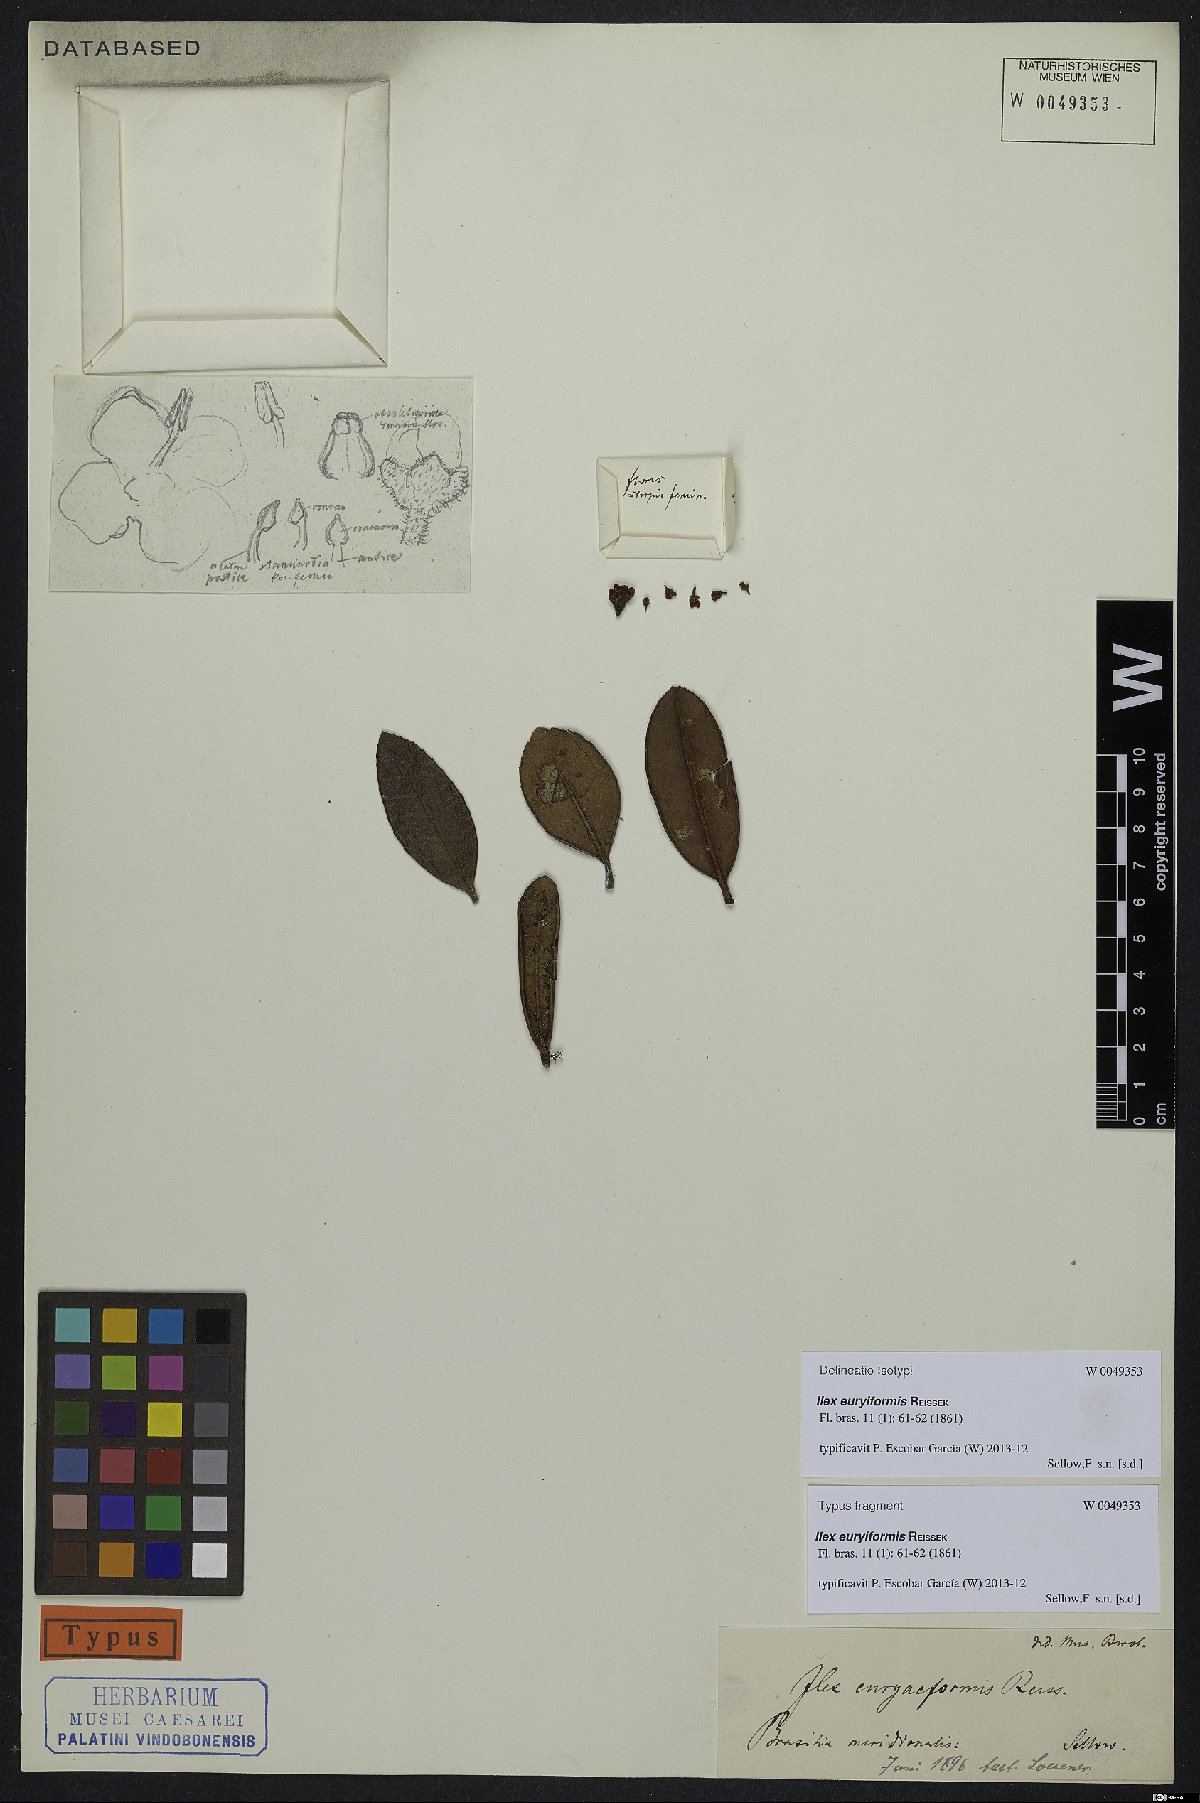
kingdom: Plantae
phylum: Tracheophyta
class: Magnoliopsida
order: Aquifoliales
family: Aquifoliaceae
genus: Ilex
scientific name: Ilex euryiformis
